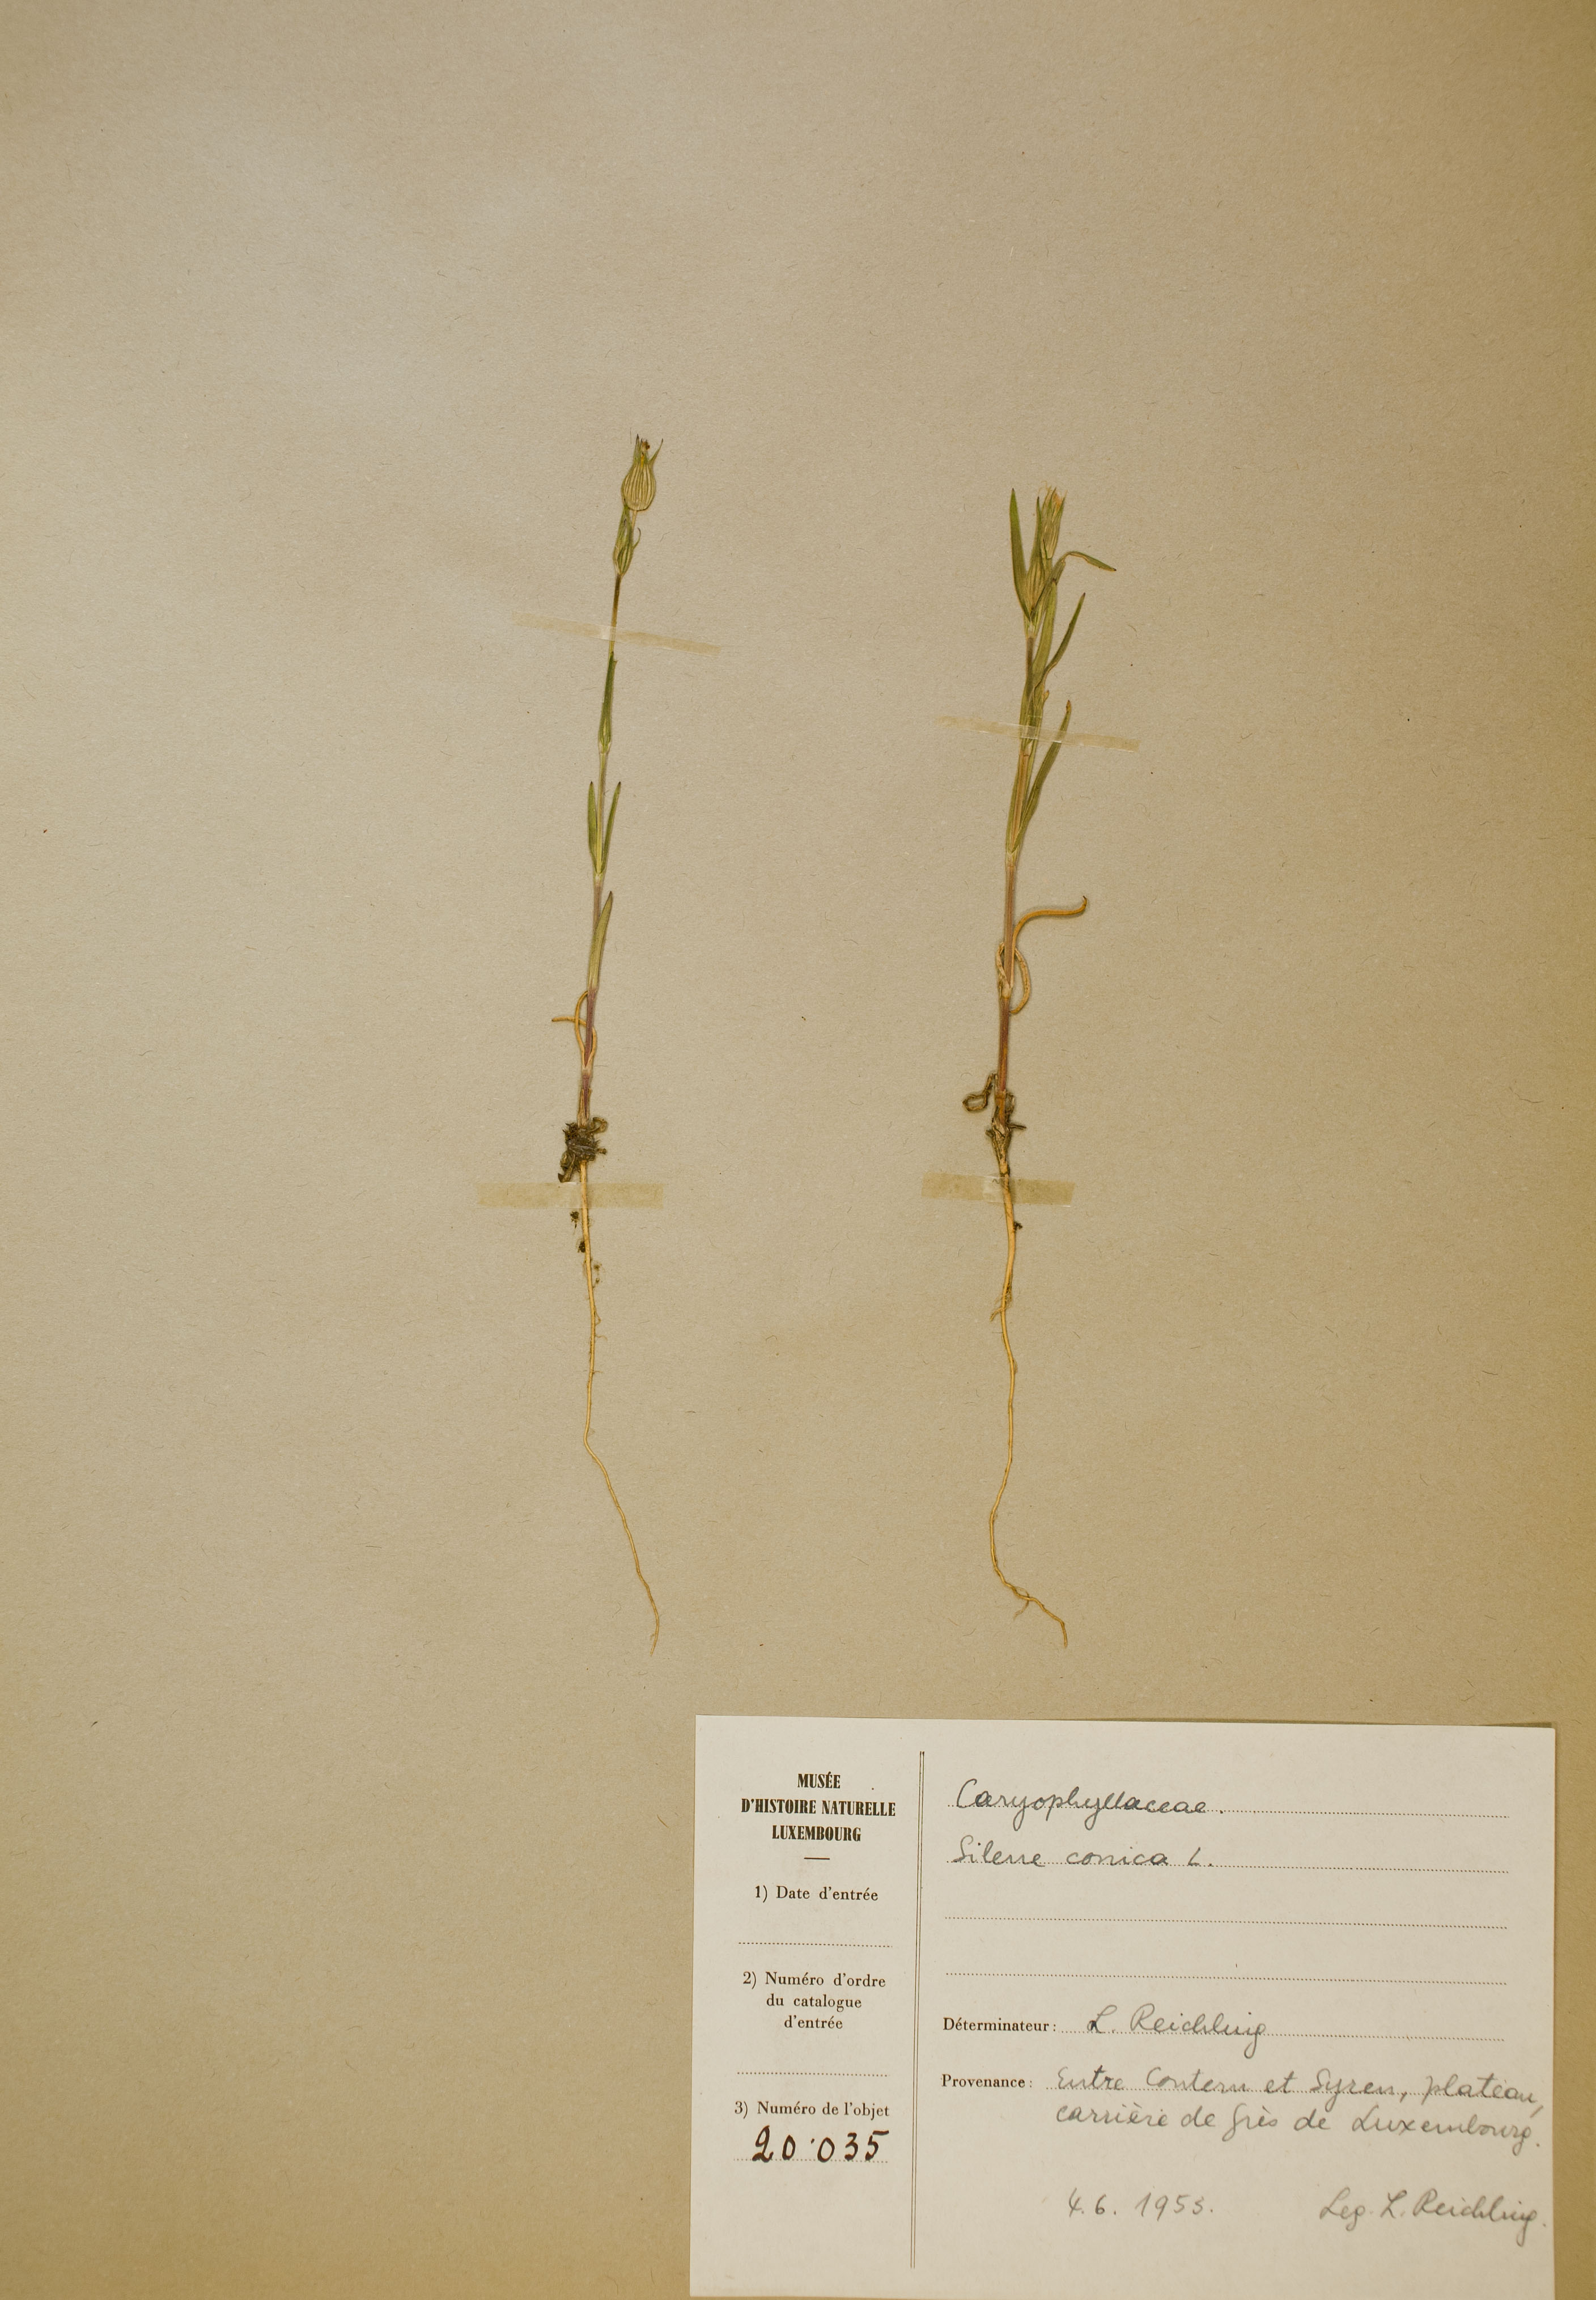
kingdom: Plantae
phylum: Tracheophyta
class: Magnoliopsida
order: Caryophyllales
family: Caryophyllaceae
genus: Silene
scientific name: Silene conica
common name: Sand catchfly
